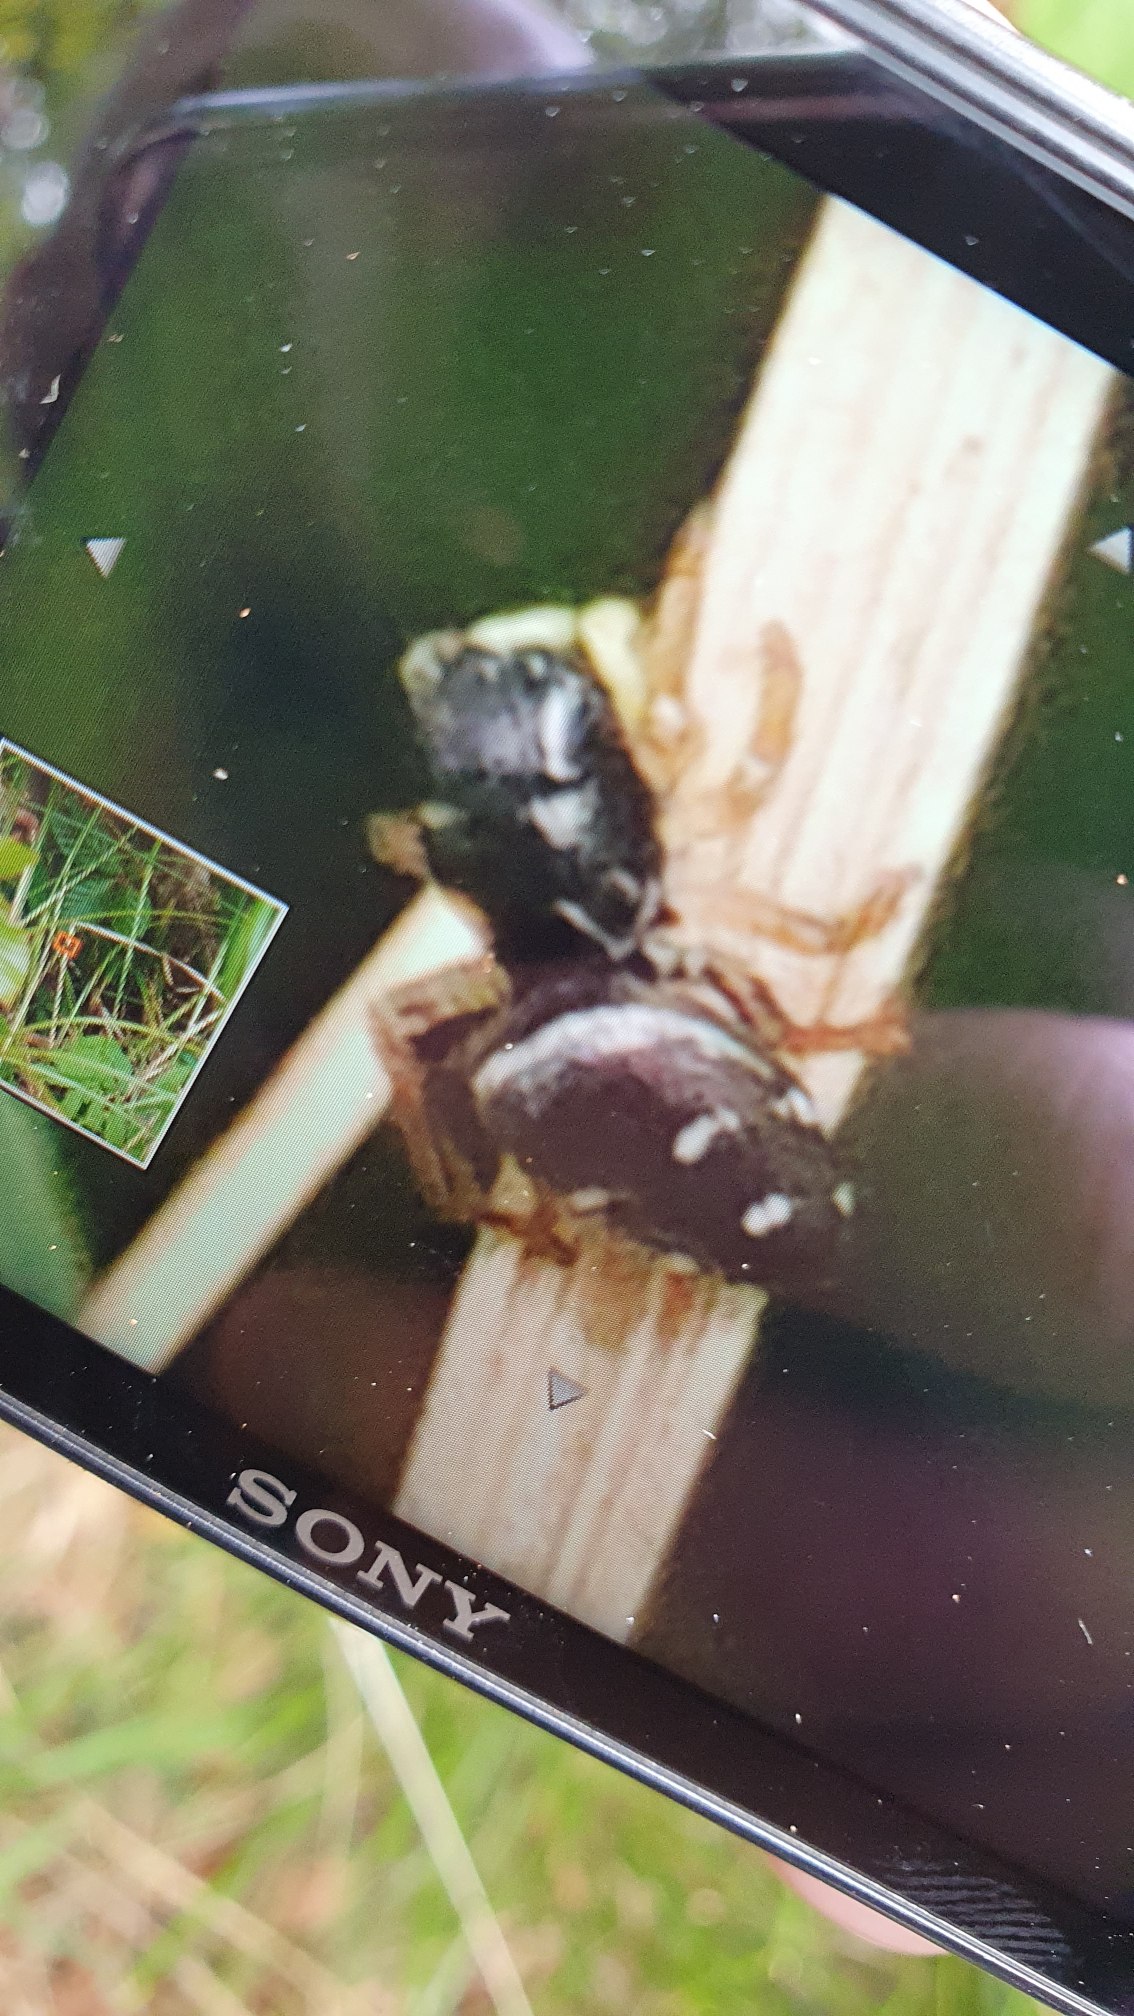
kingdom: Animalia
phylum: Arthropoda
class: Arachnida
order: Araneae
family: Salticidae
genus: Heliophanus
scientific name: Heliophanus
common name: Sortspringerslægten
